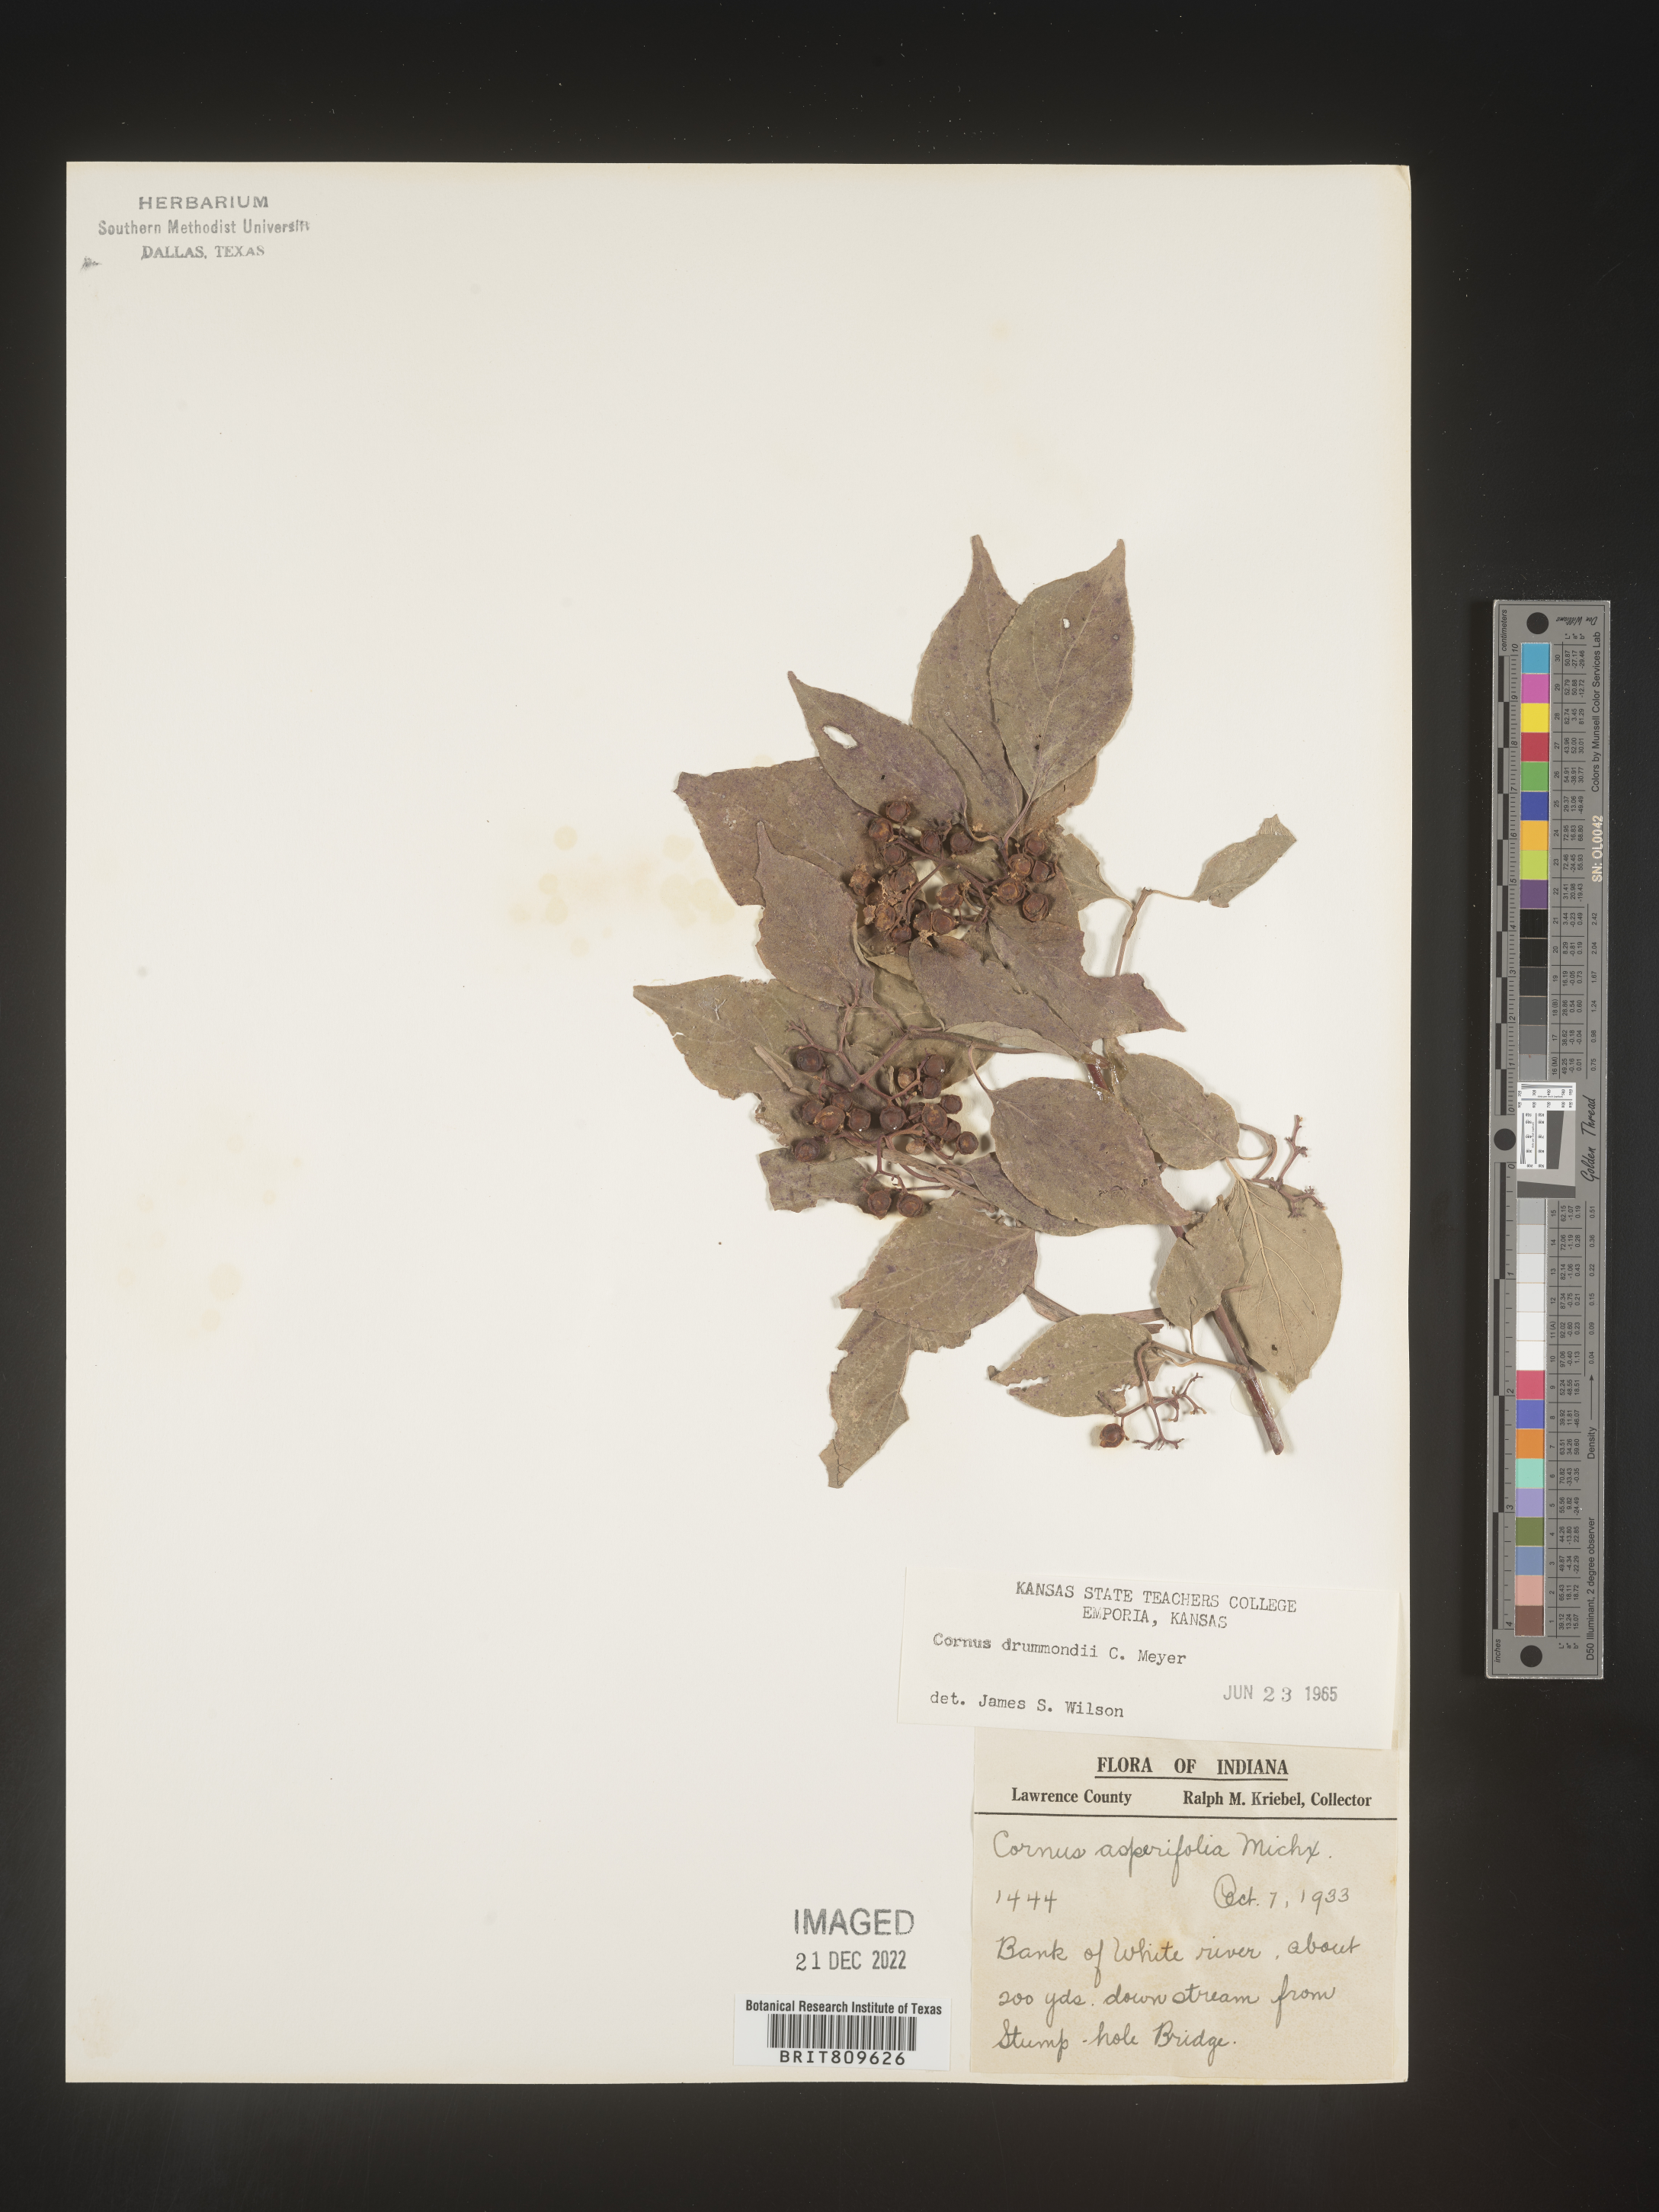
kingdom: Plantae
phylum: Tracheophyta
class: Magnoliopsida
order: Cornales
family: Cornaceae
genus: Cornus
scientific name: Cornus drummondii
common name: Rough-leaf dogwood
